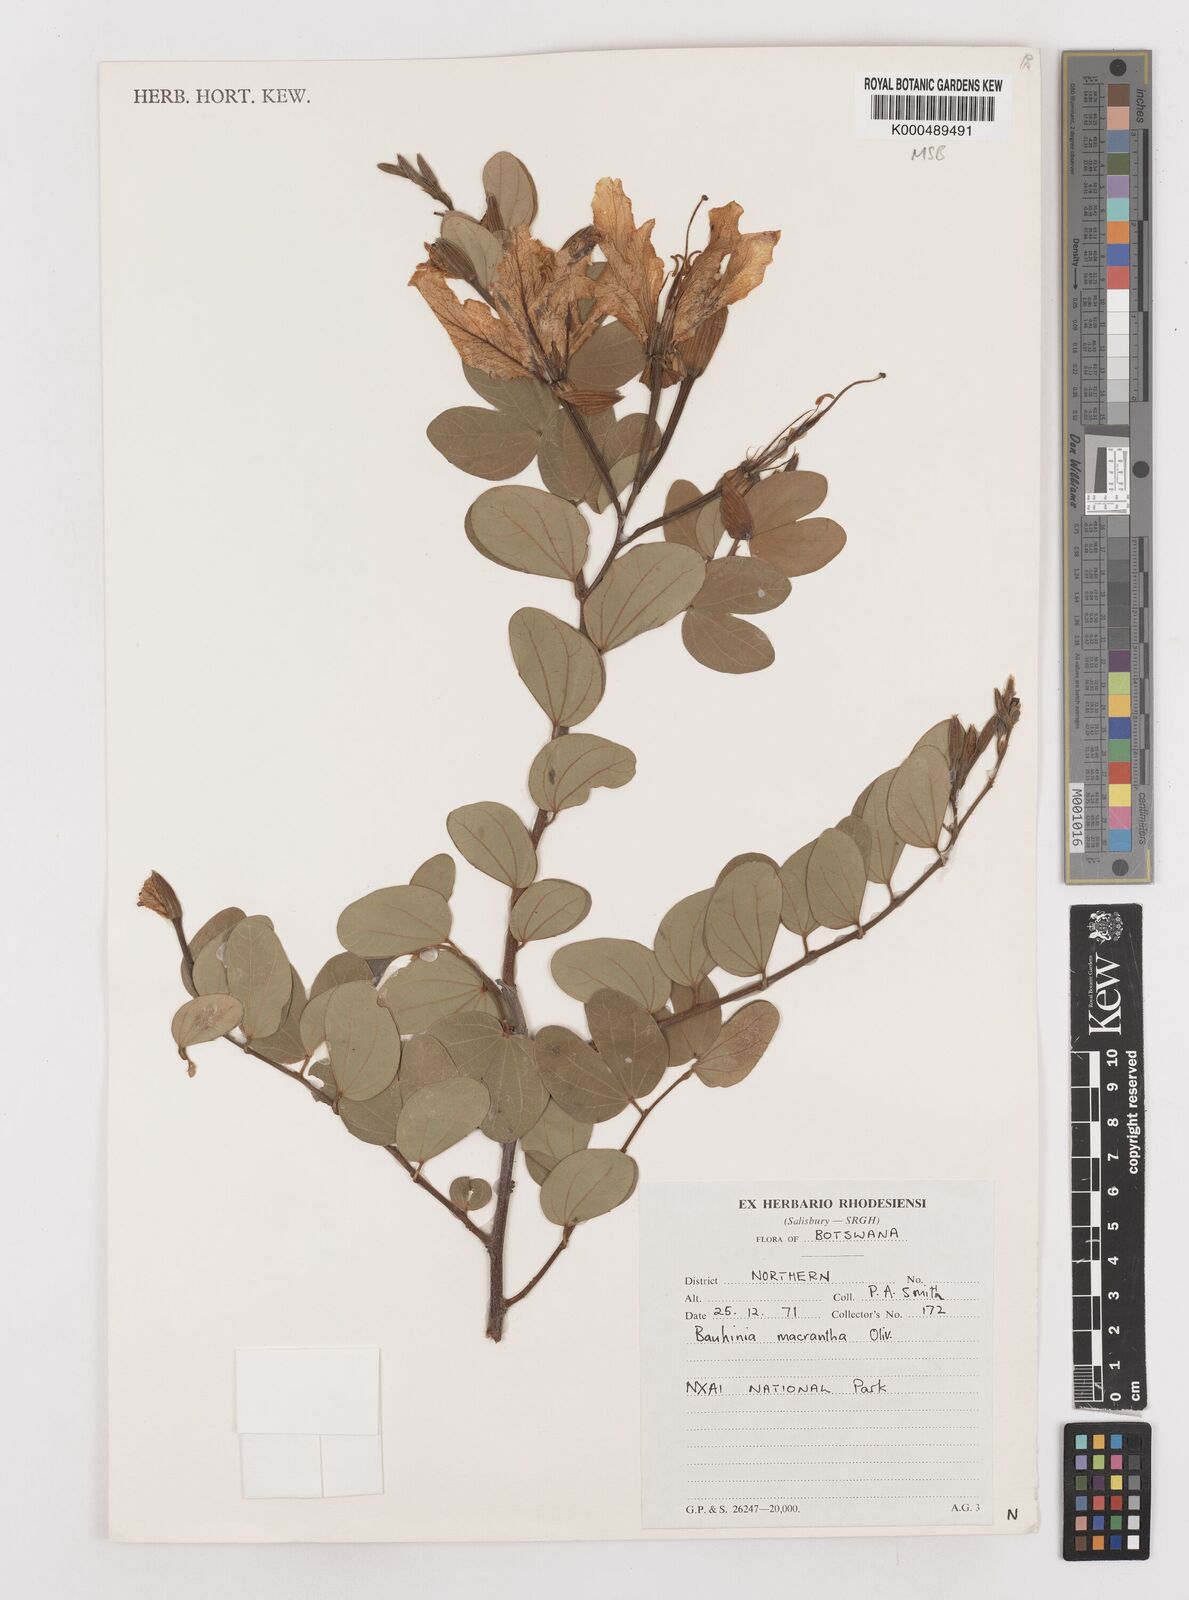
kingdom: Plantae
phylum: Tracheophyta
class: Magnoliopsida
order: Fabales
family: Fabaceae
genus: Bauhinia
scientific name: Bauhinia macrantha
